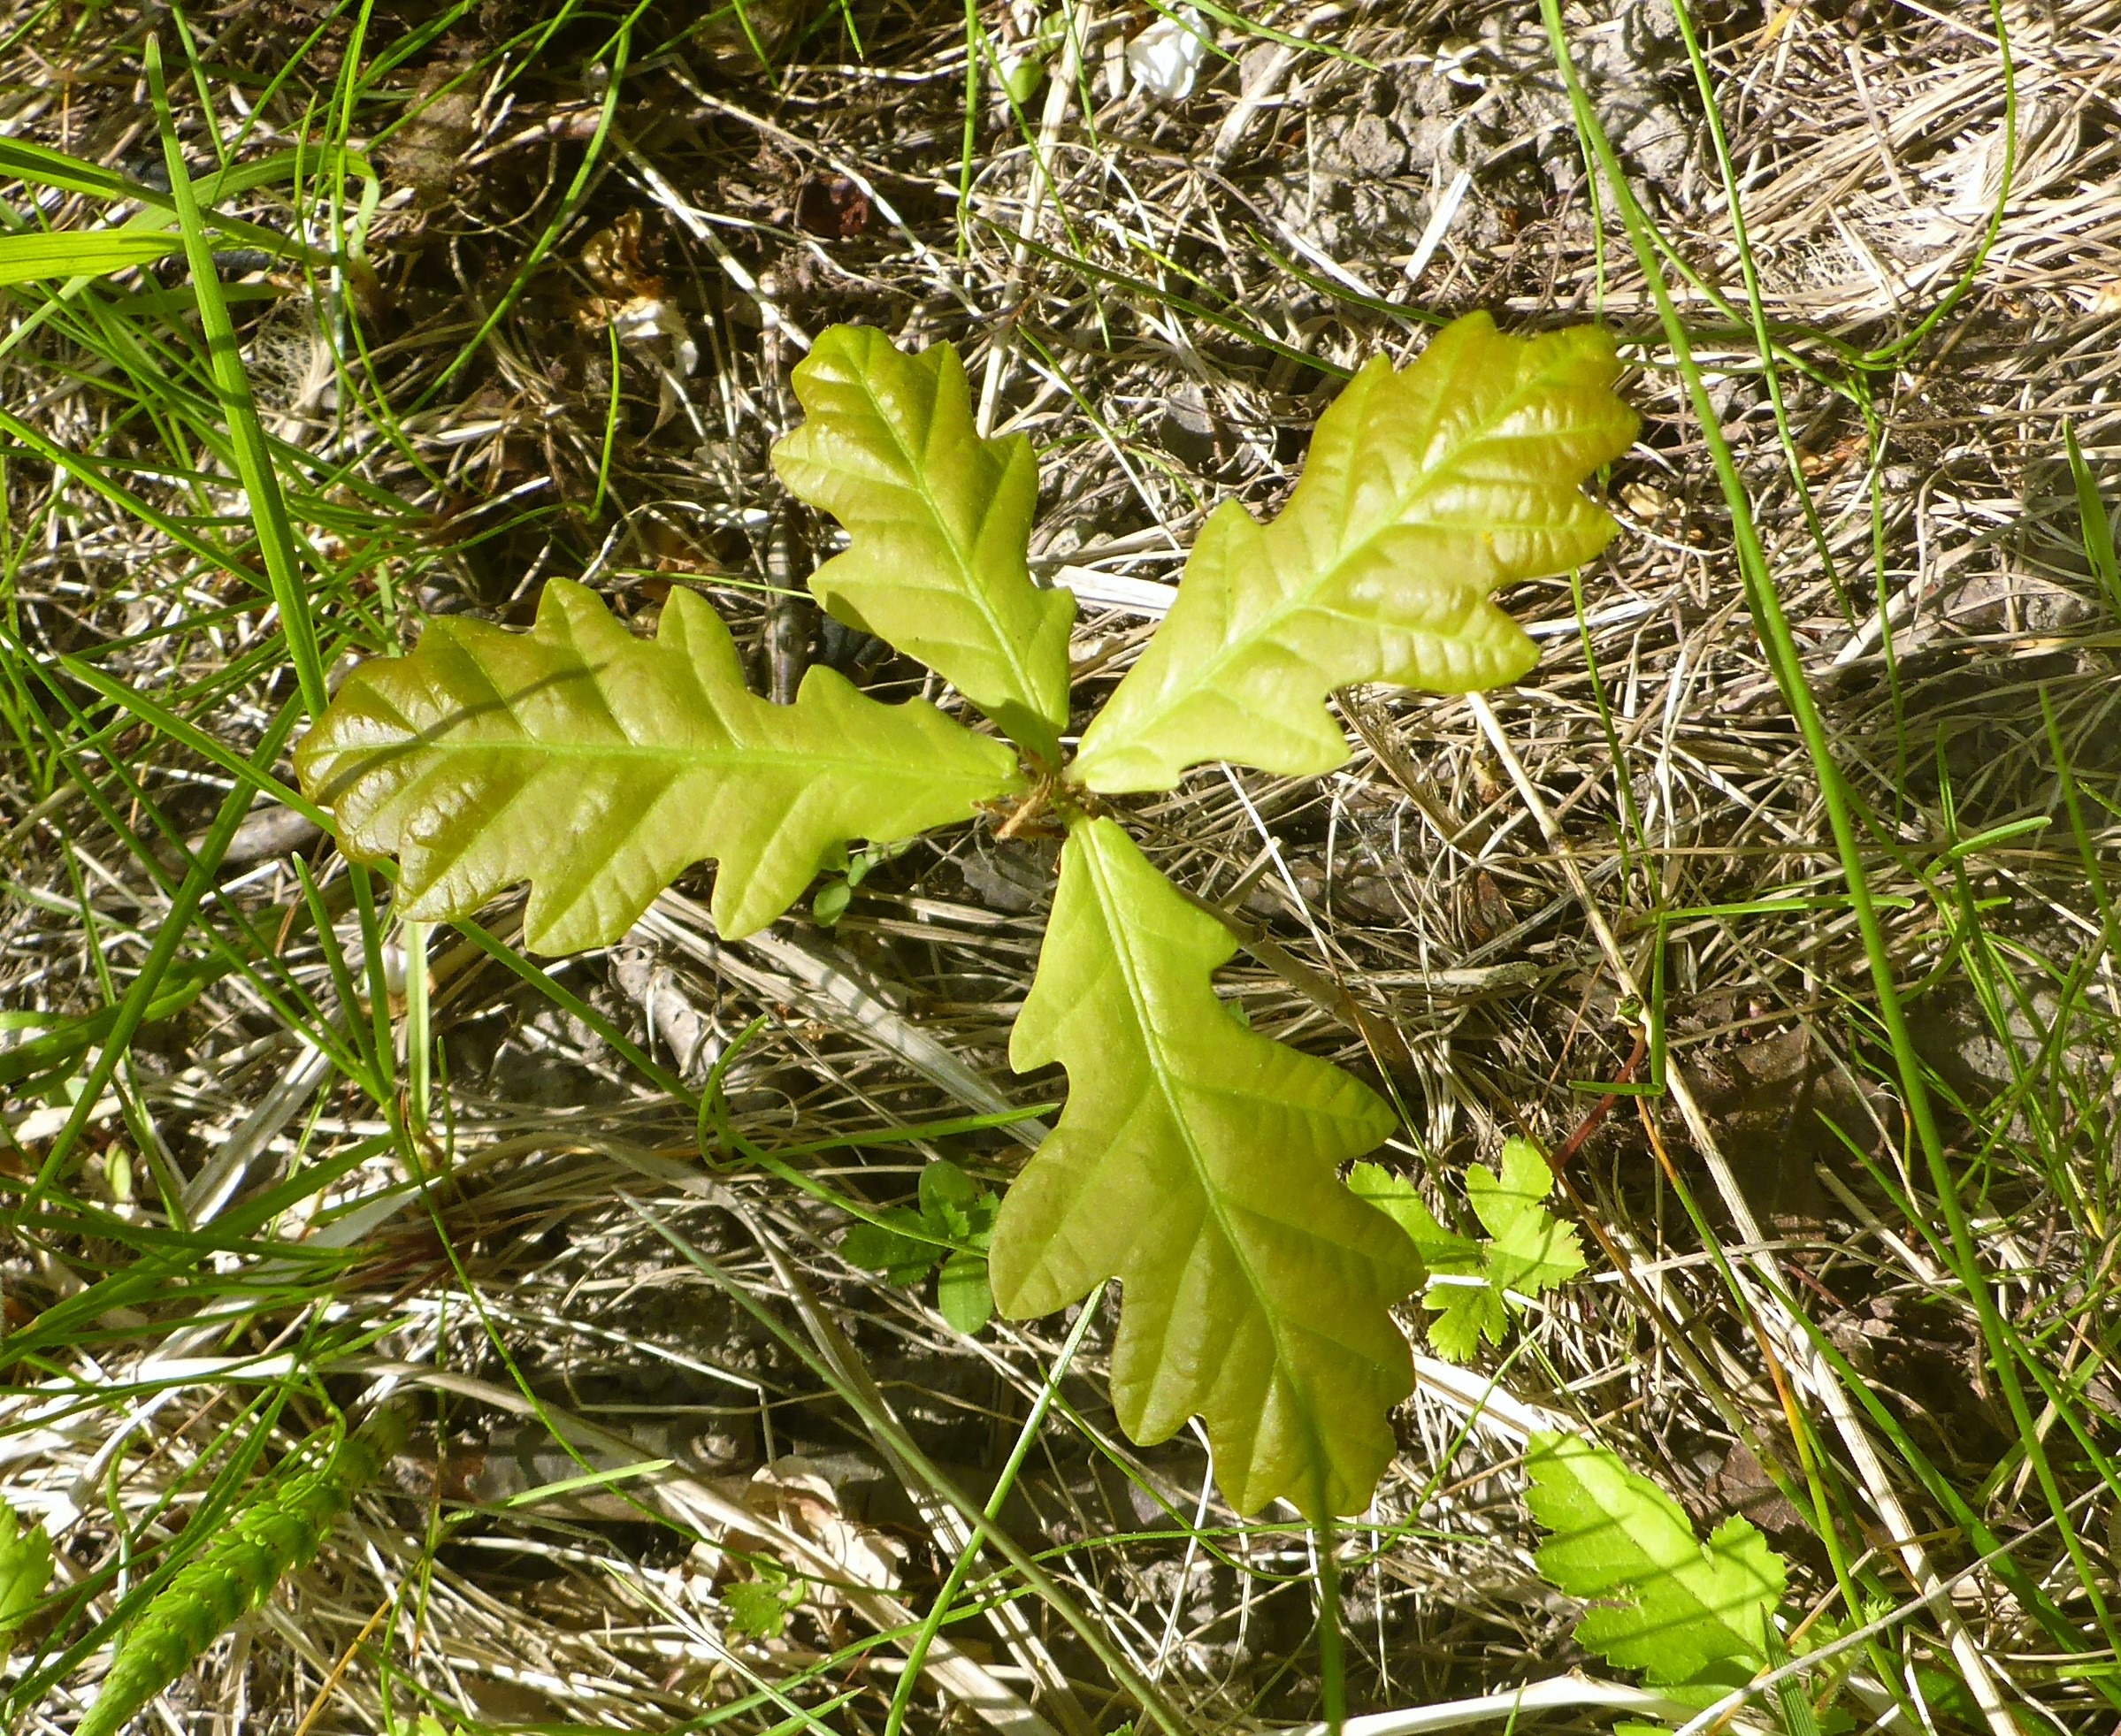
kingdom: Plantae
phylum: Tracheophyta
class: Magnoliopsida
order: Fagales
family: Fagaceae
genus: Quercus
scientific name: Quercus robur
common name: Stilk-eg/almindelig eg
